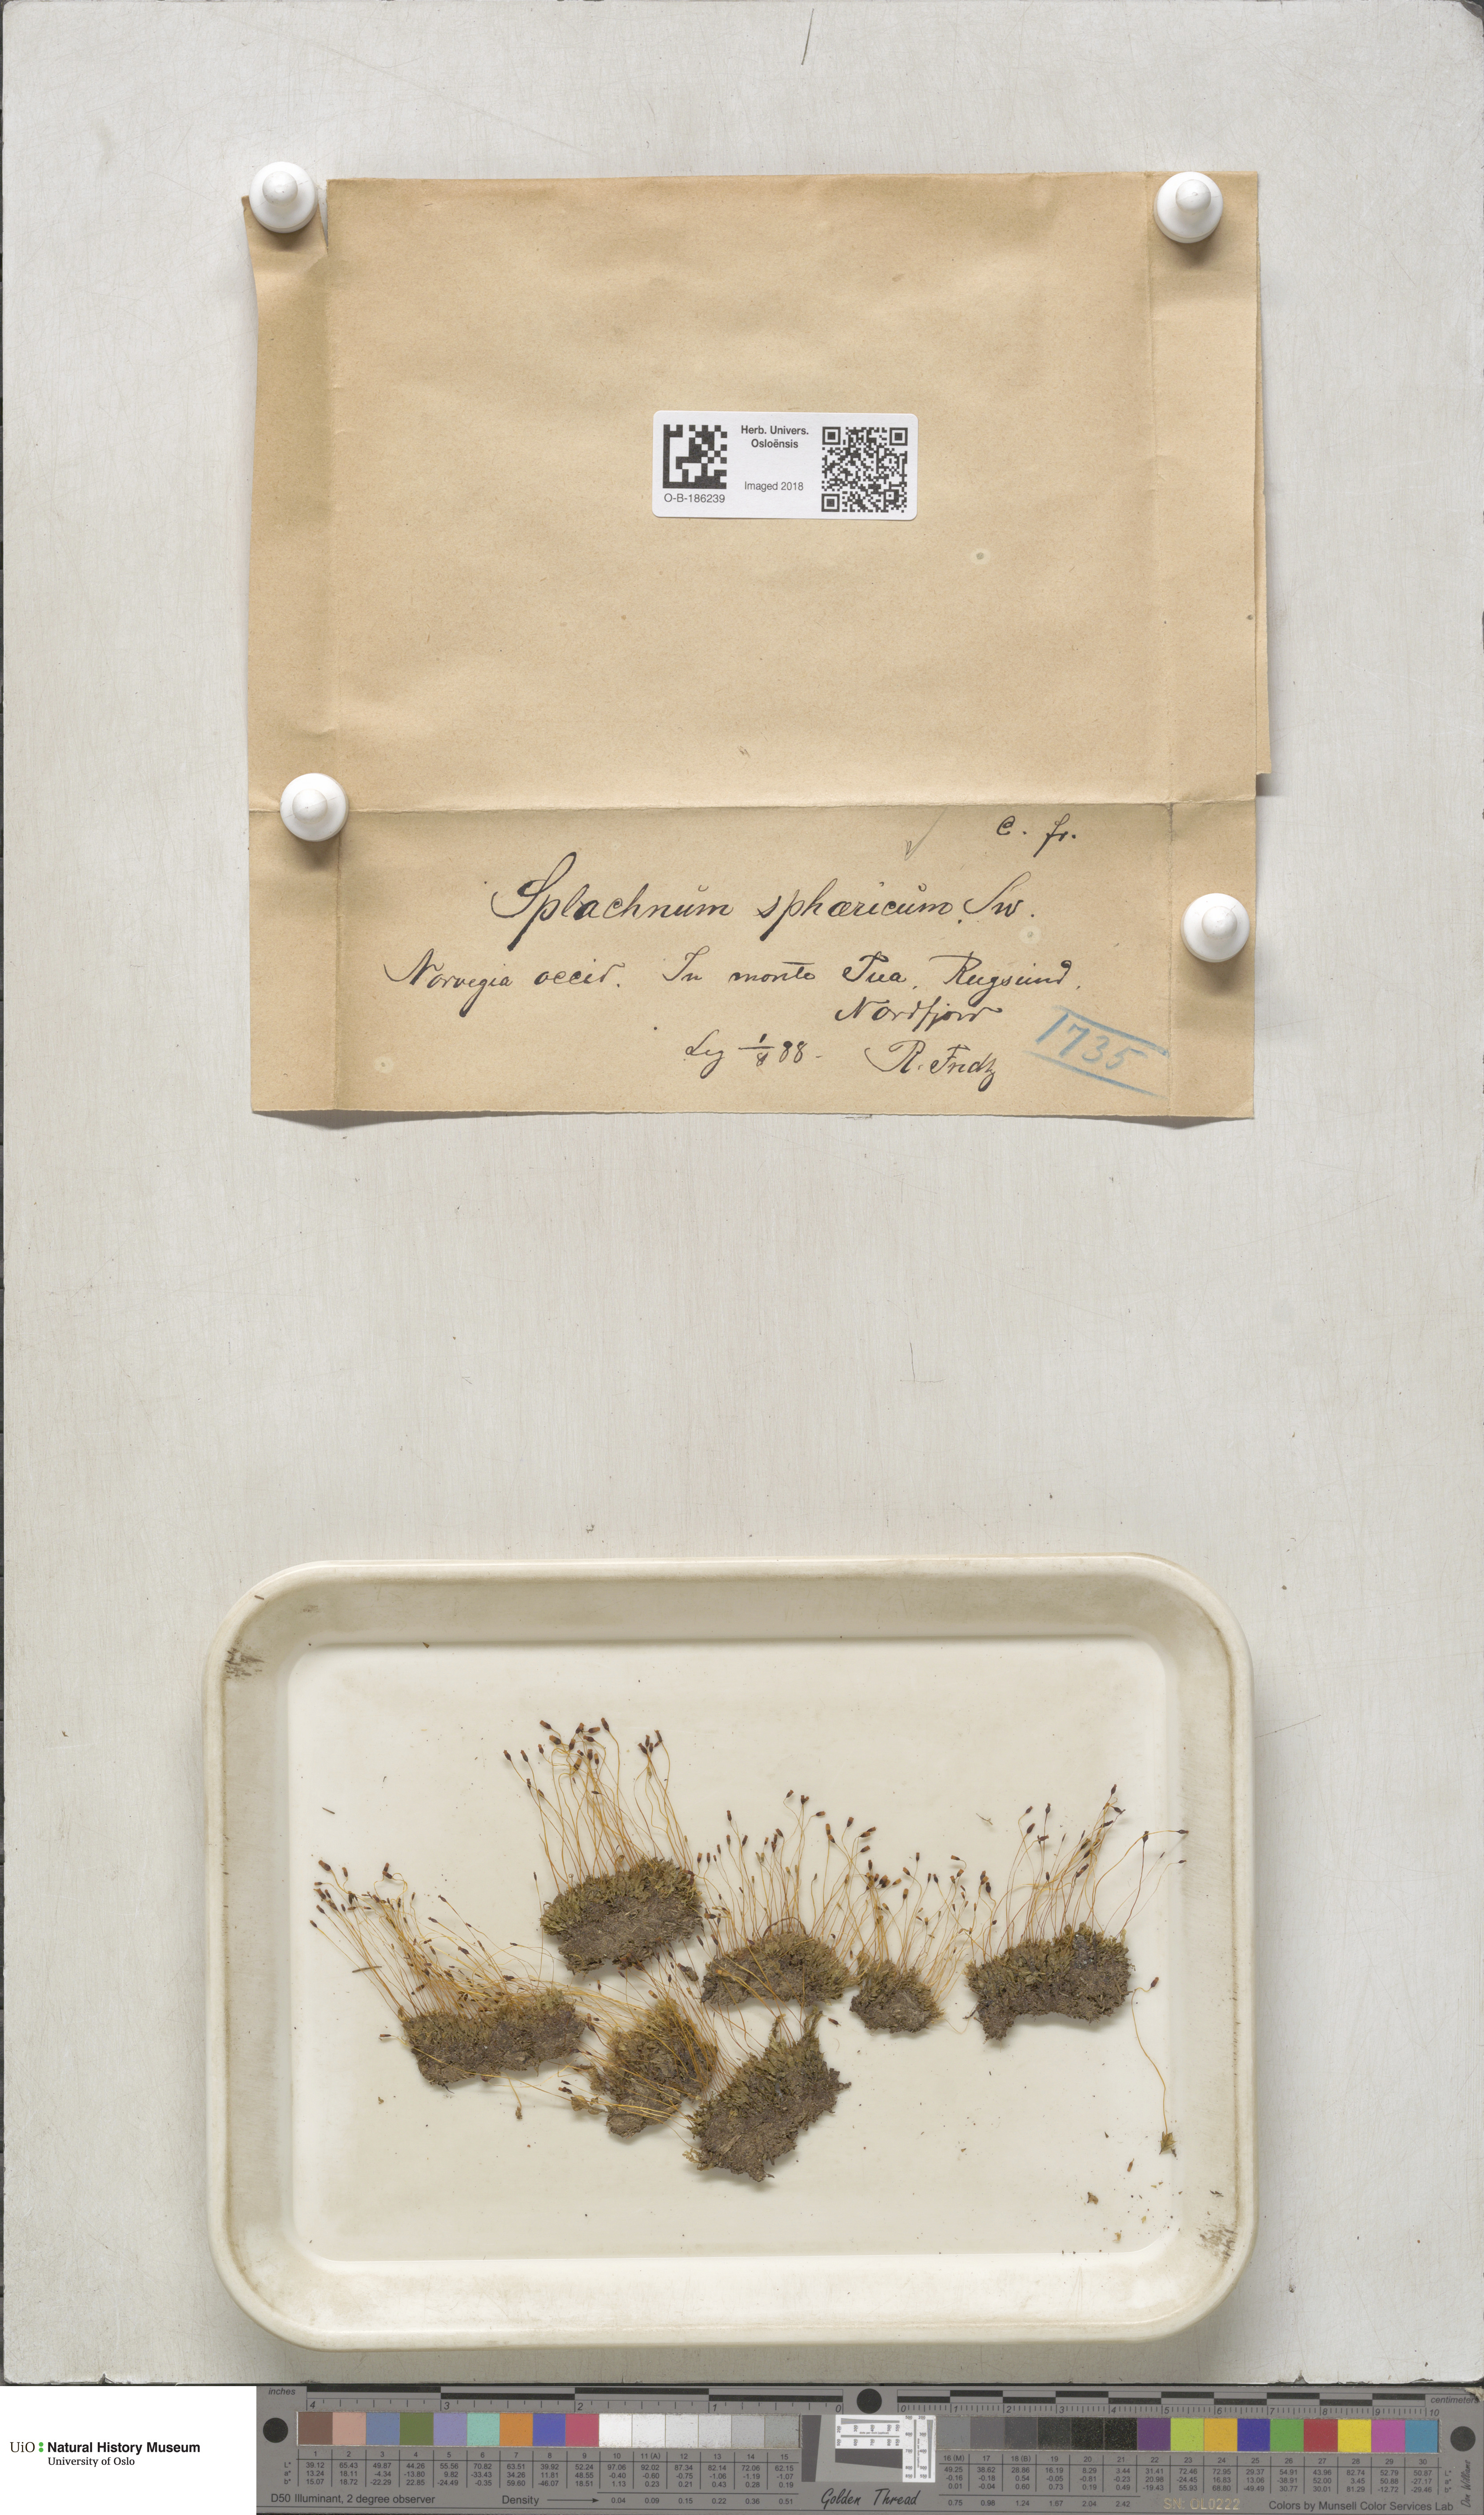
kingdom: Plantae
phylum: Bryophyta
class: Bryopsida
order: Splachnales
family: Splachnaceae
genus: Splachnum
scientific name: Splachnum sphaericum
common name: Round-fruited dung moss
